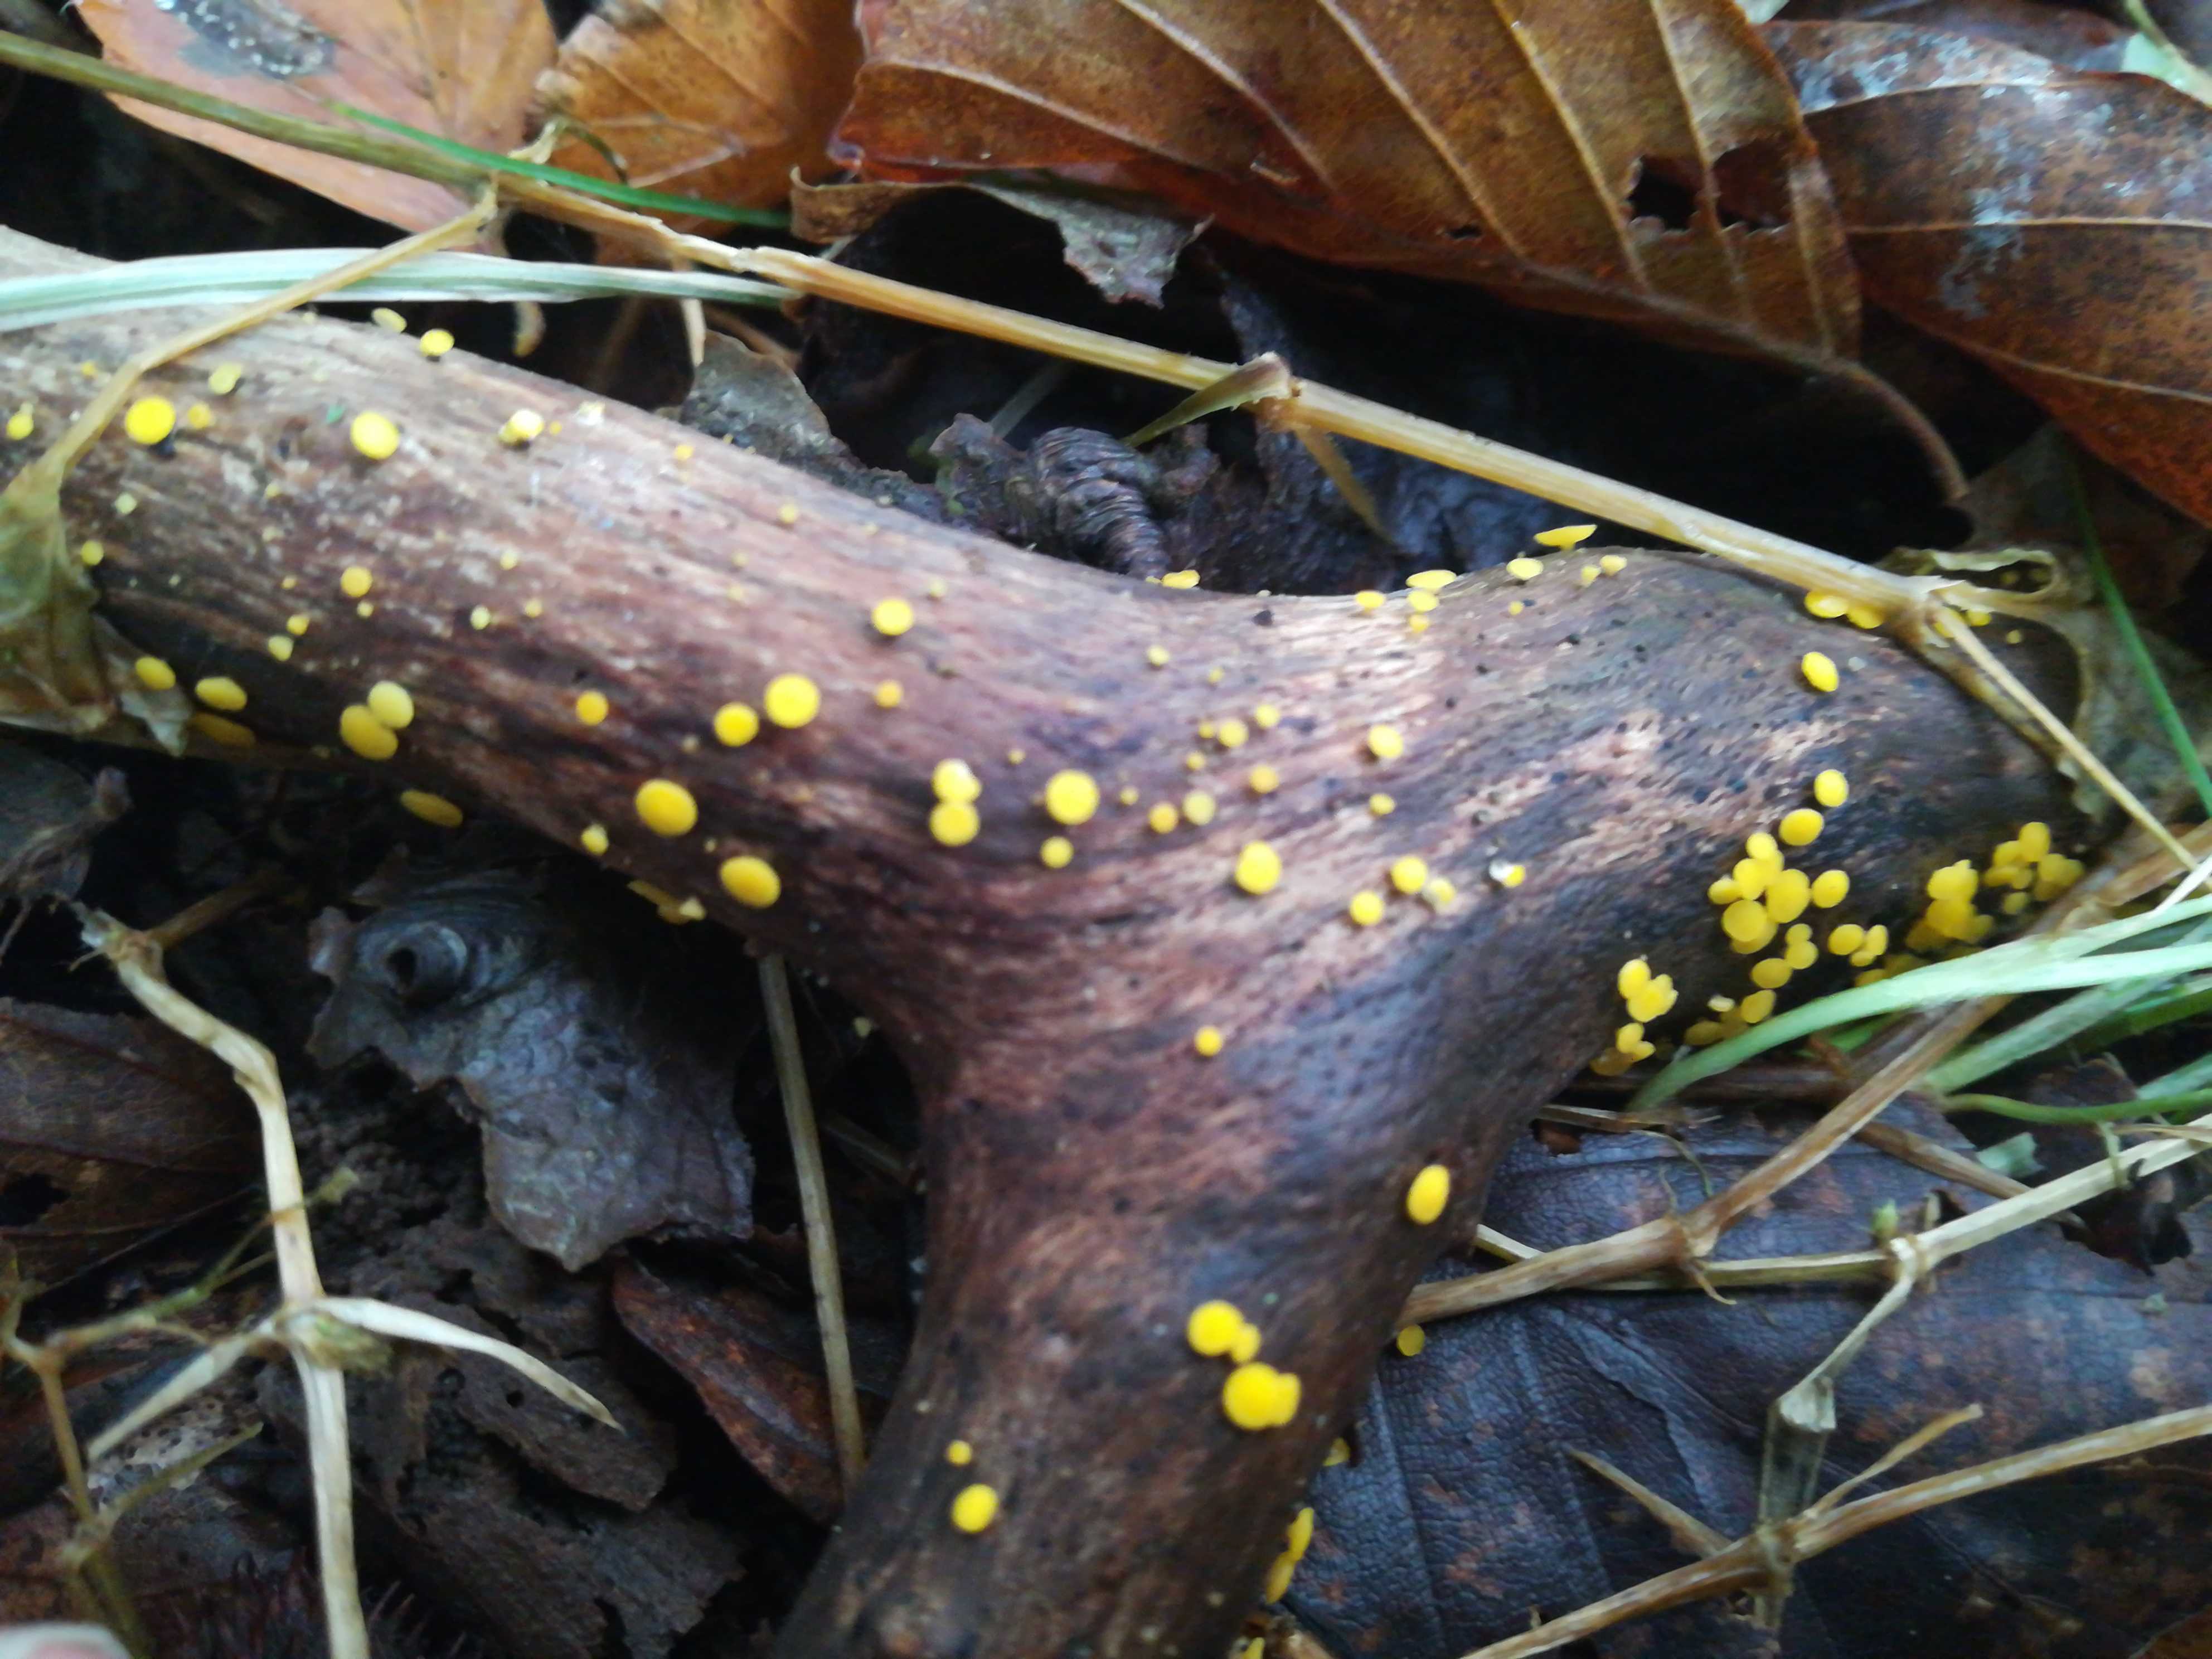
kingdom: Fungi
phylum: Ascomycota
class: Leotiomycetes
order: Helotiales
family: Pezizellaceae
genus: Calycina
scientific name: Calycina citrina
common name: almindelig gulskive
